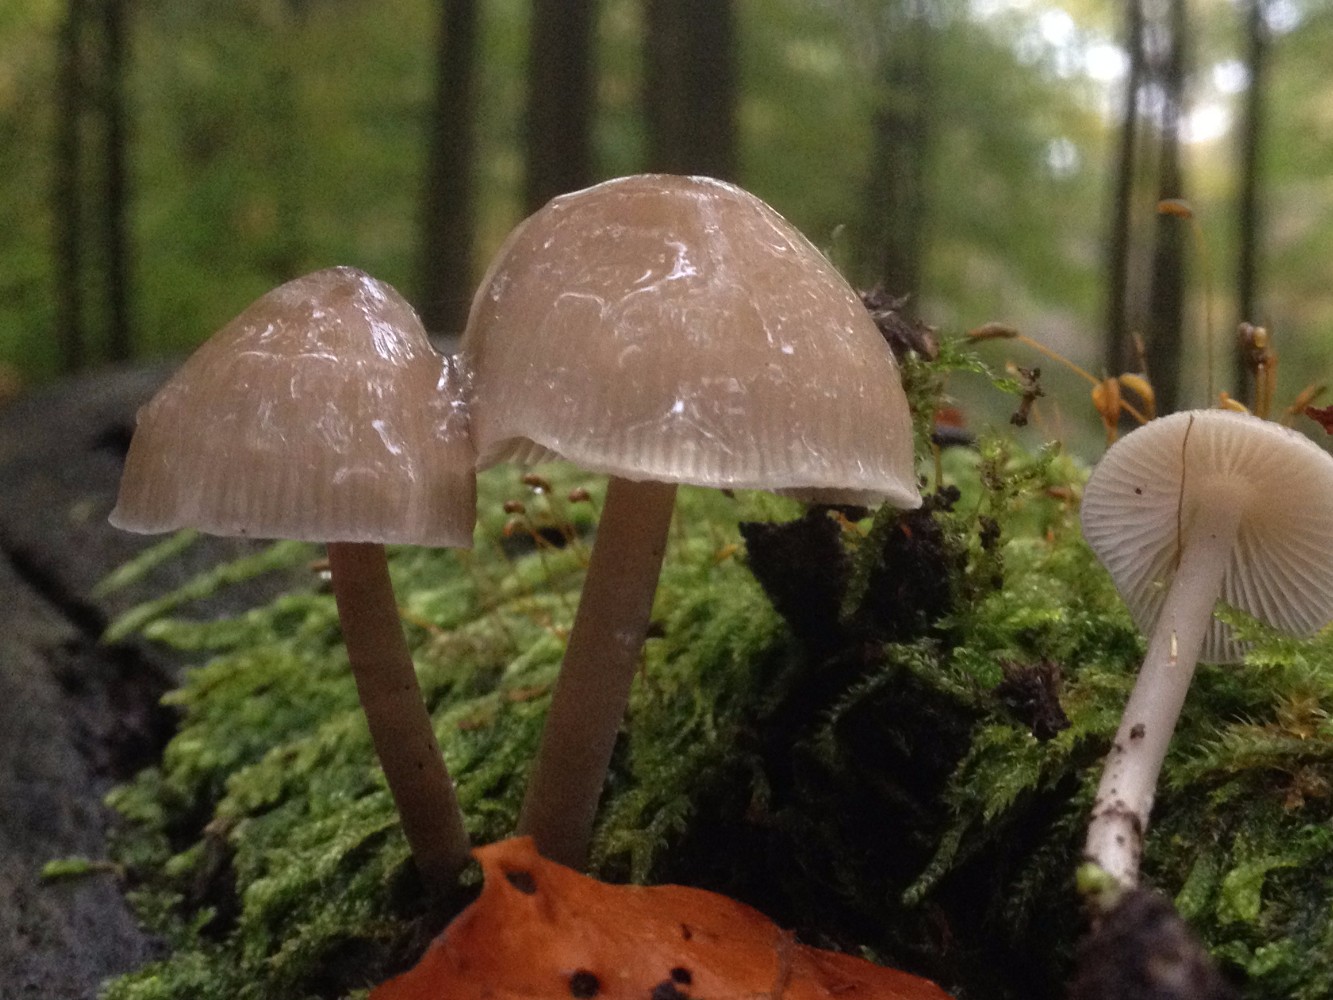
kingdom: Fungi
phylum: Basidiomycota
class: Agaricomycetes
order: Agaricales
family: Mycenaceae
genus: Mycena
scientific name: Mycena galericulata
